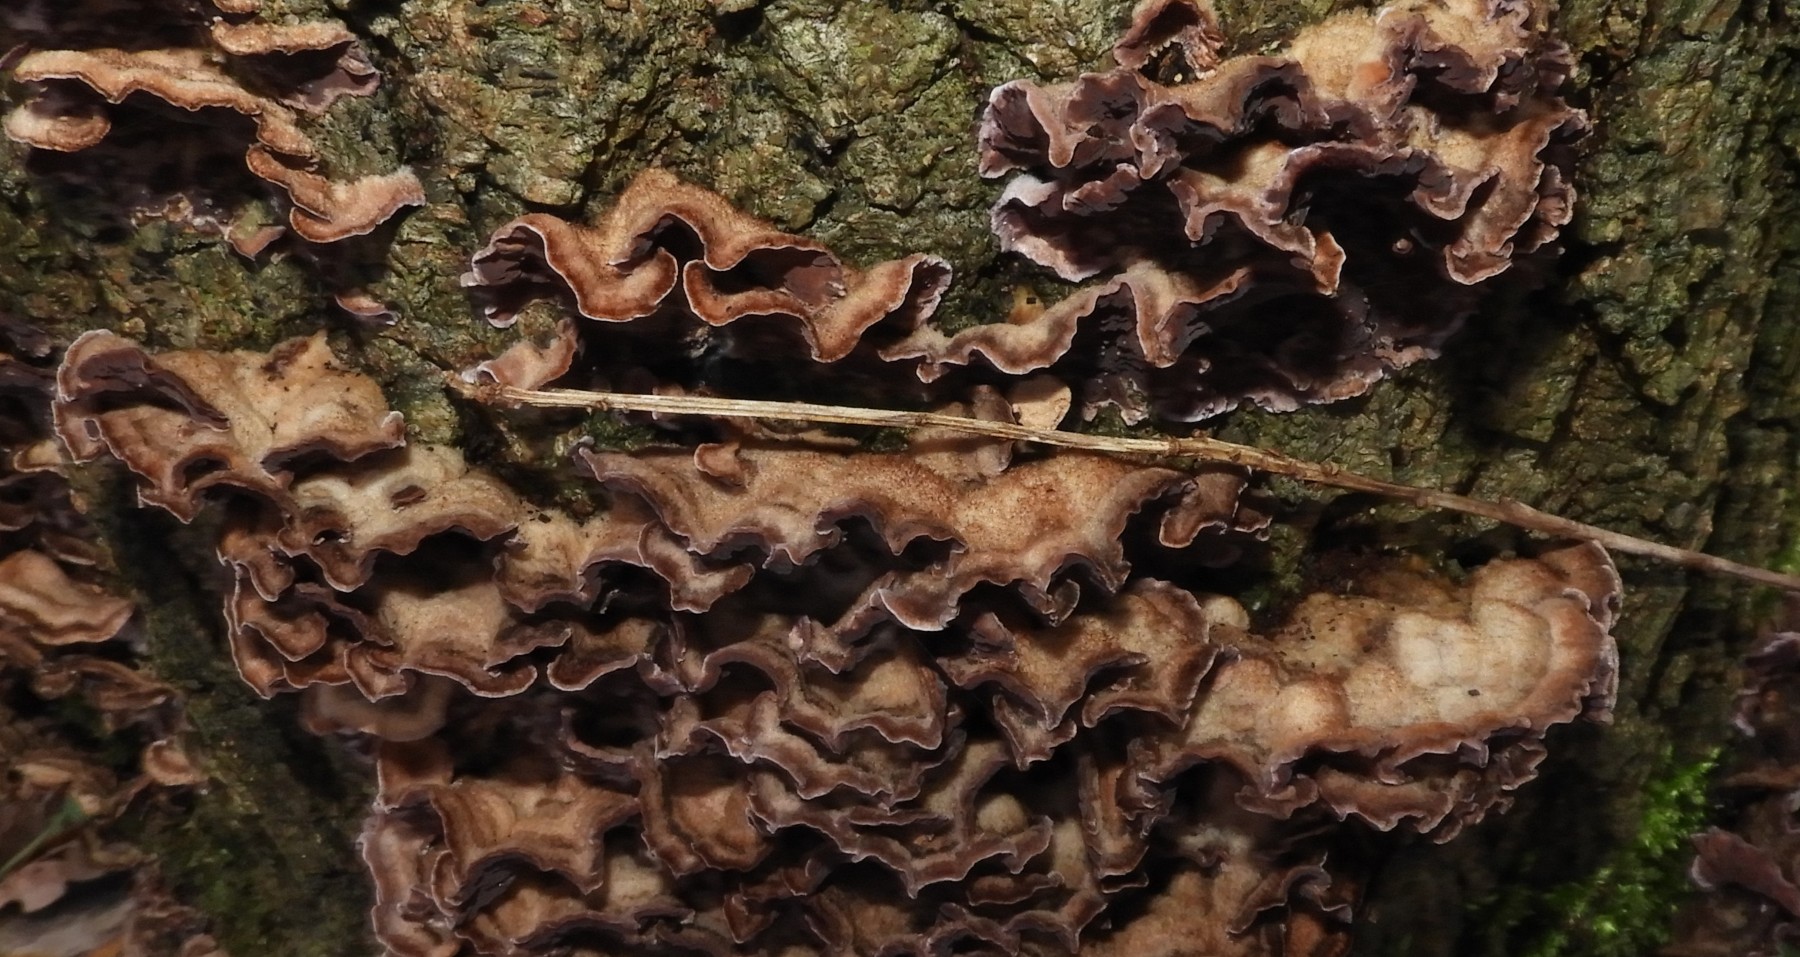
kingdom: Fungi
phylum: Basidiomycota
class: Agaricomycetes
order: Agaricales
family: Cyphellaceae
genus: Chondrostereum
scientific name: Chondrostereum purpureum
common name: purpurlædersvamp
